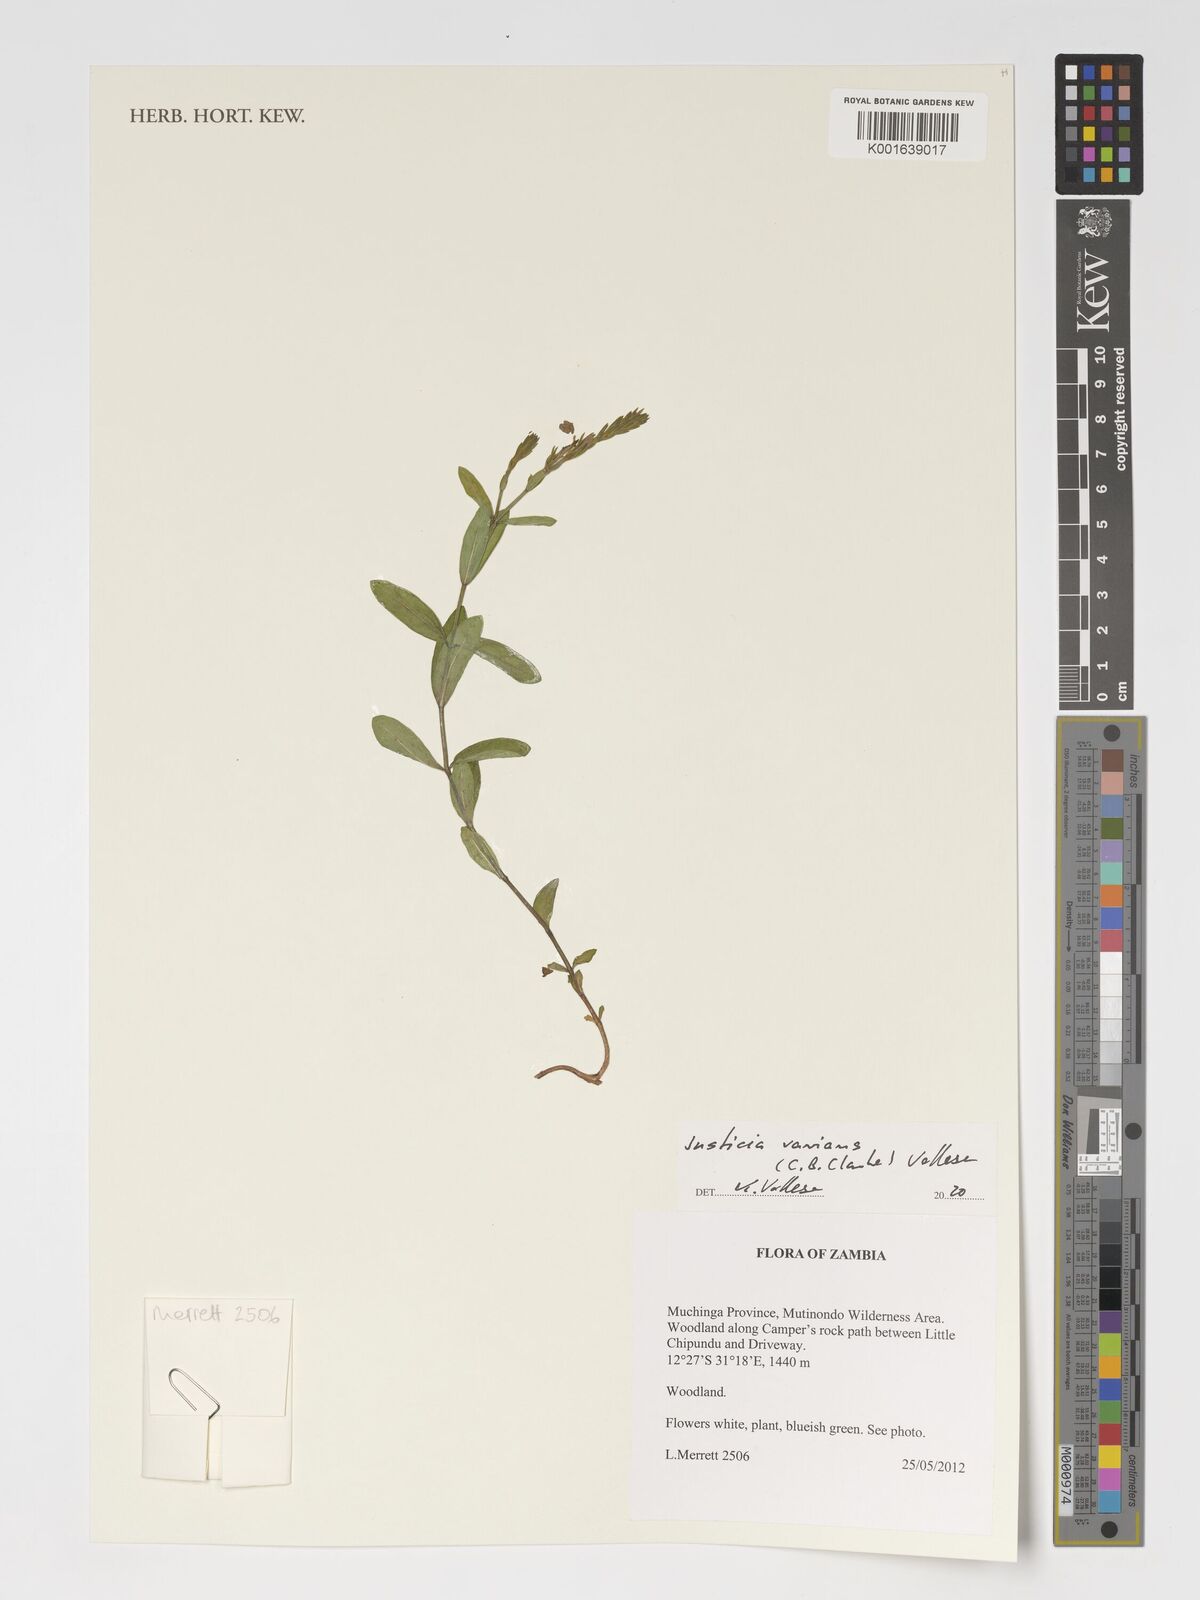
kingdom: Plantae
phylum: Tracheophyta
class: Magnoliopsida
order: Lamiales
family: Acanthaceae
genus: Monechma
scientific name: Monechma varians
